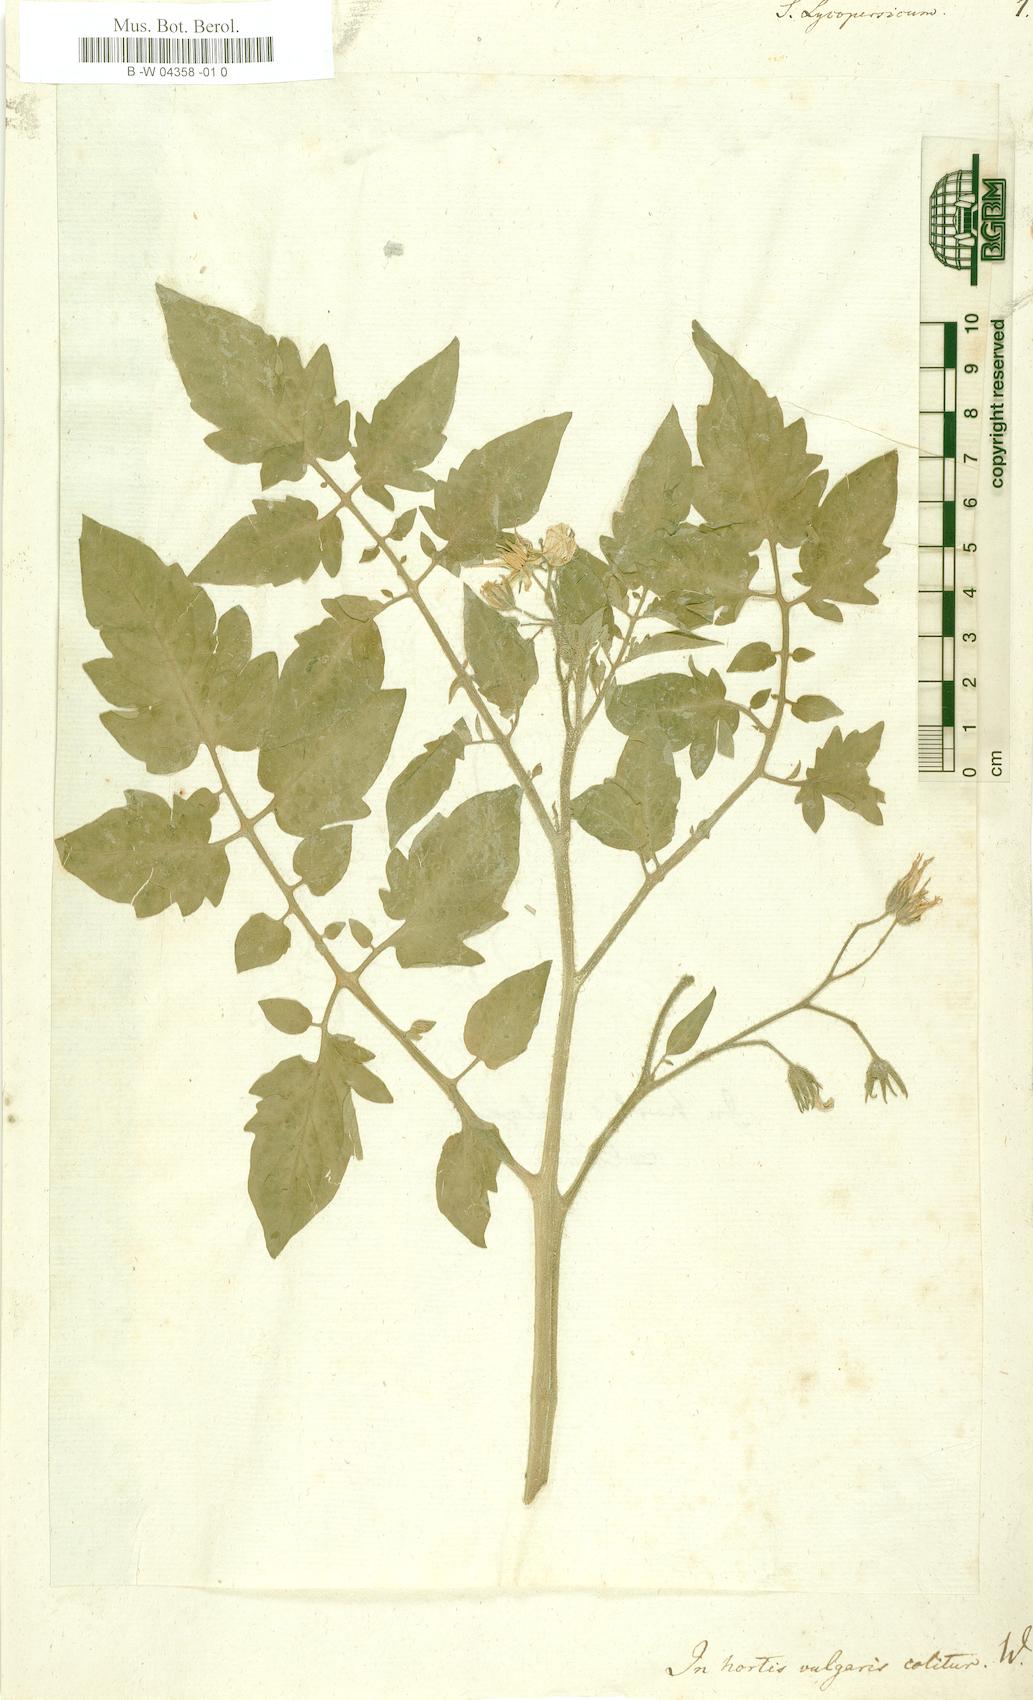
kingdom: Plantae
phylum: Tracheophyta
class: Magnoliopsida
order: Solanales
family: Solanaceae
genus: Solanum
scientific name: Solanum lycopersicum
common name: Garden tomato
